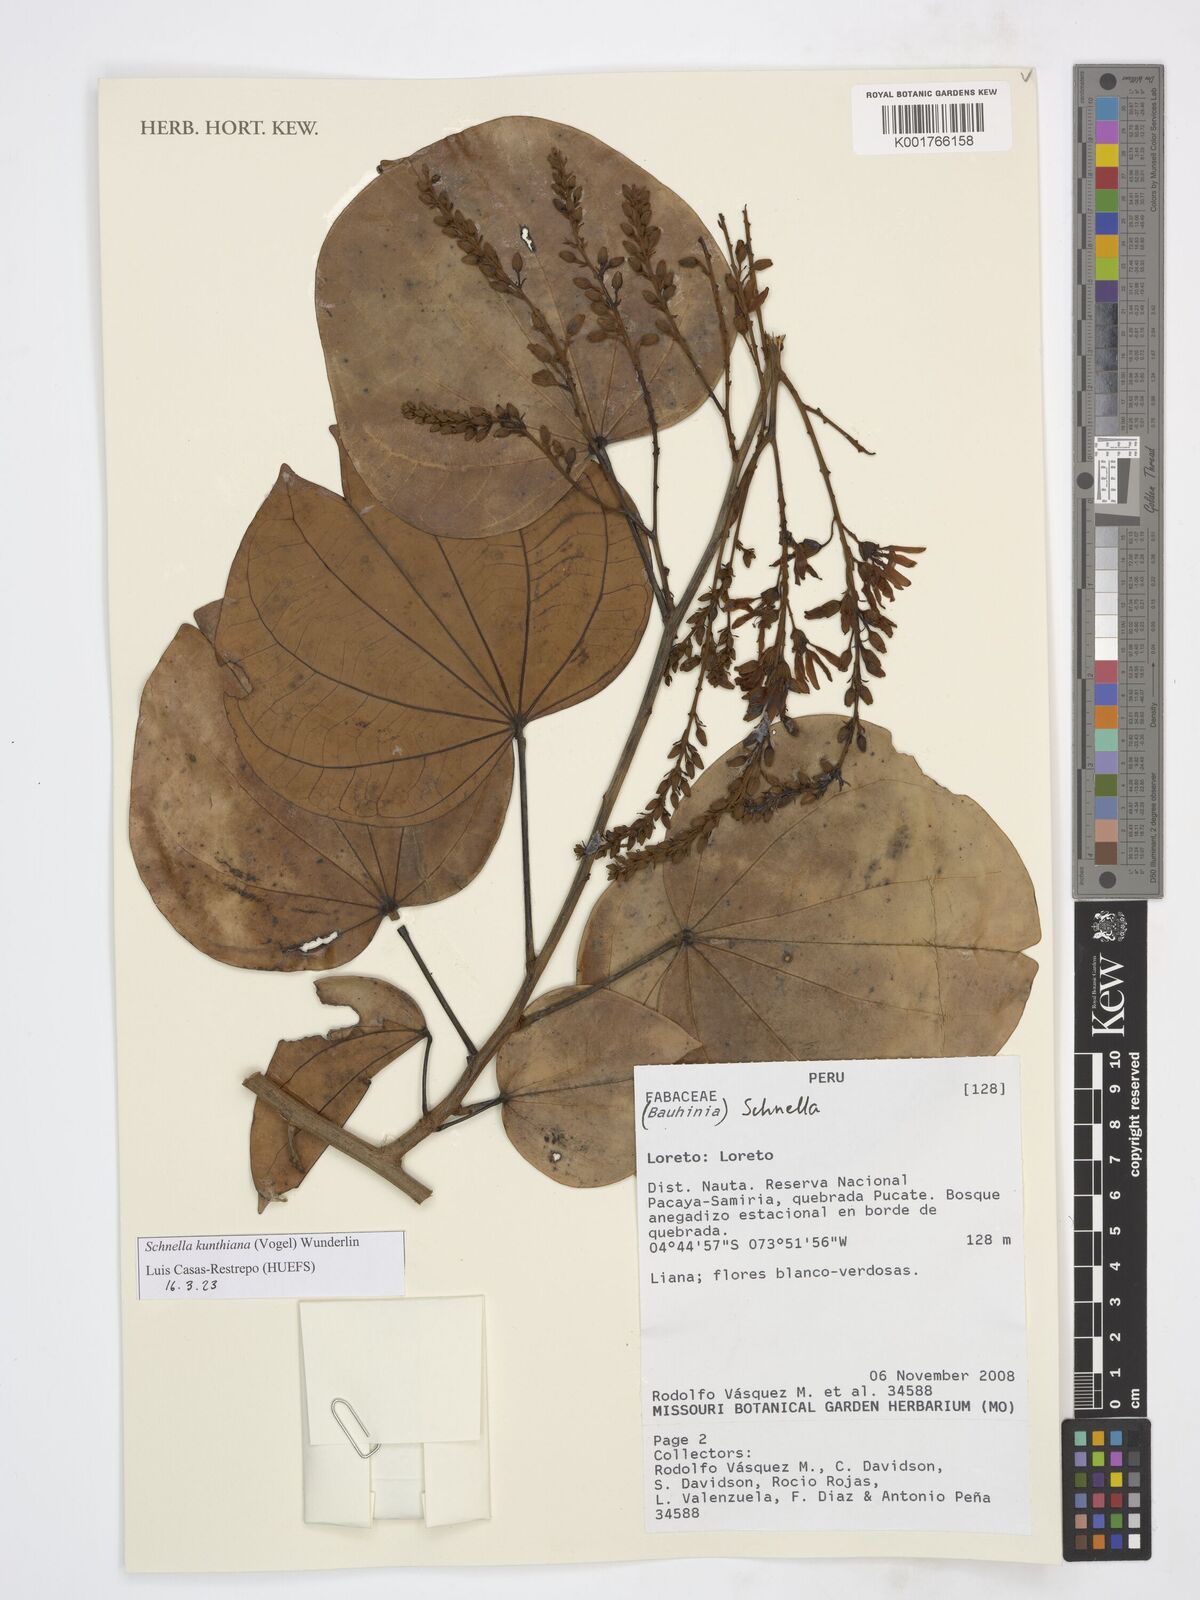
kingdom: Plantae
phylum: Tracheophyta
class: Magnoliopsida
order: Fabales
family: Fabaceae
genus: Schnella
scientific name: Schnella kunthiana
